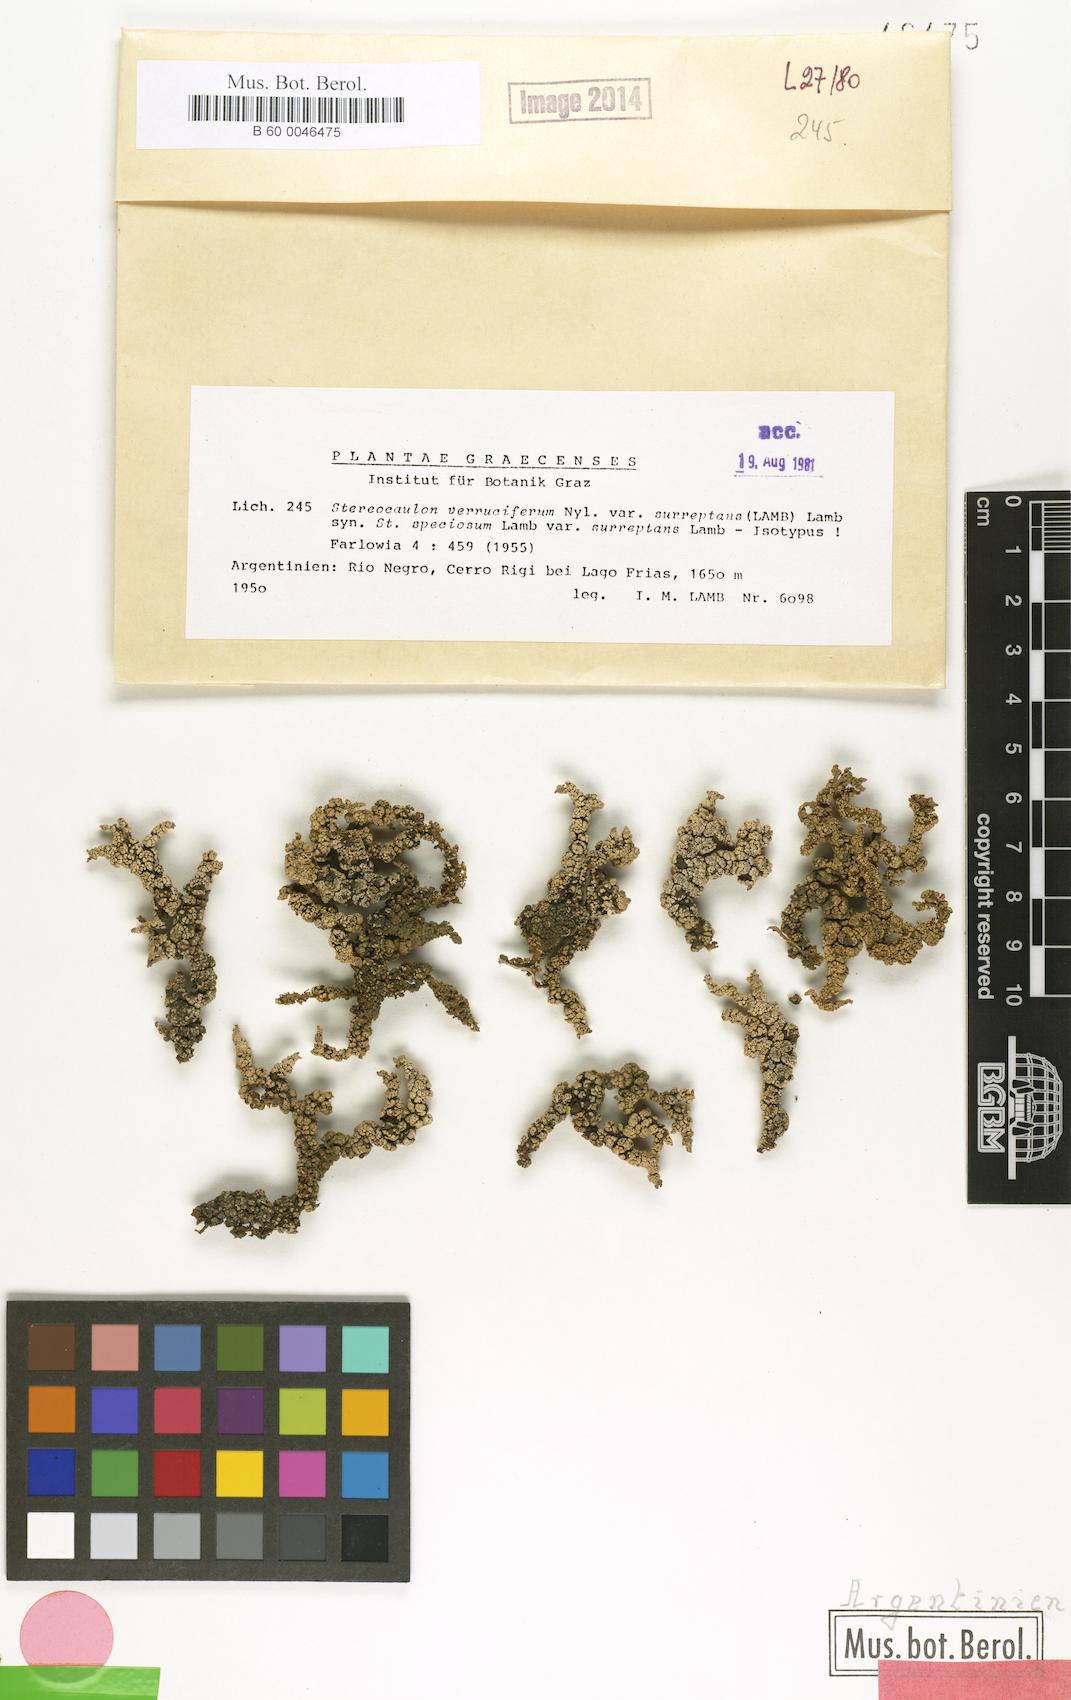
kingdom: Fungi
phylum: Ascomycota
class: Lecanoromycetes
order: Lecanorales
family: Stereocaulaceae
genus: Stereocaulon
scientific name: Stereocaulon
